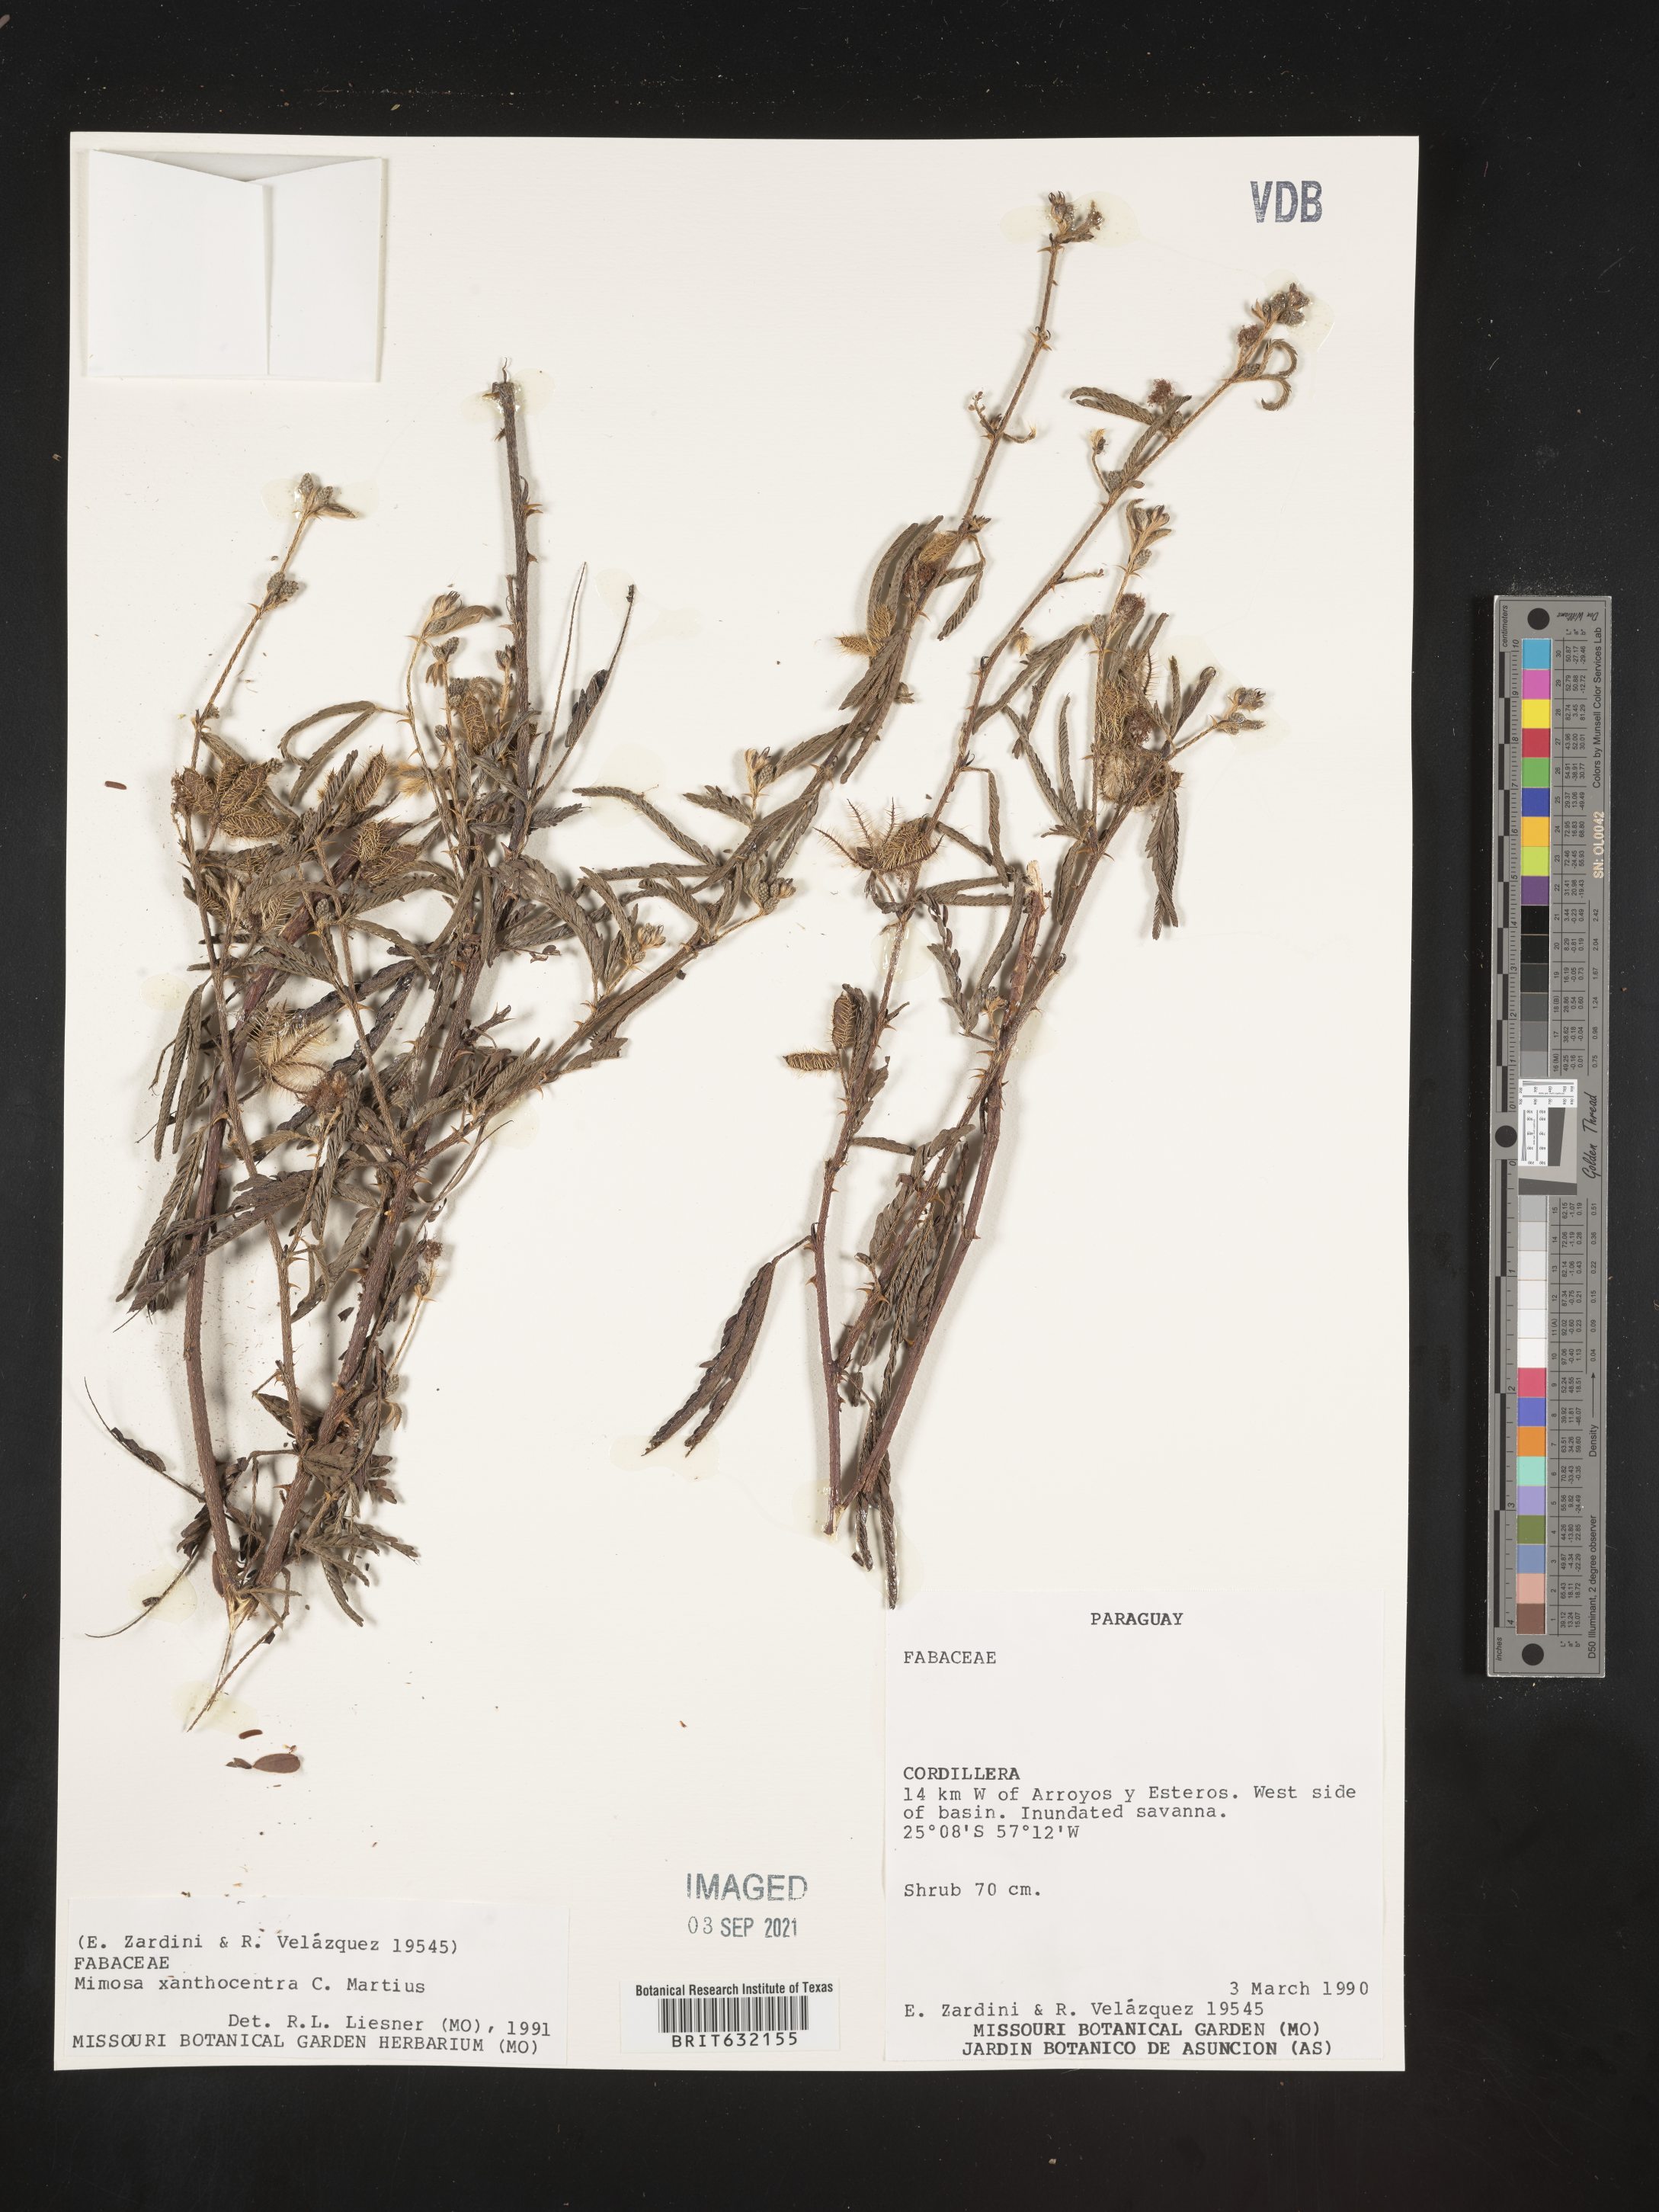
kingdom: Plantae
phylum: Tracheophyta
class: Magnoliopsida
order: Fabales
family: Fabaceae
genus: Mimosa
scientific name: Mimosa
